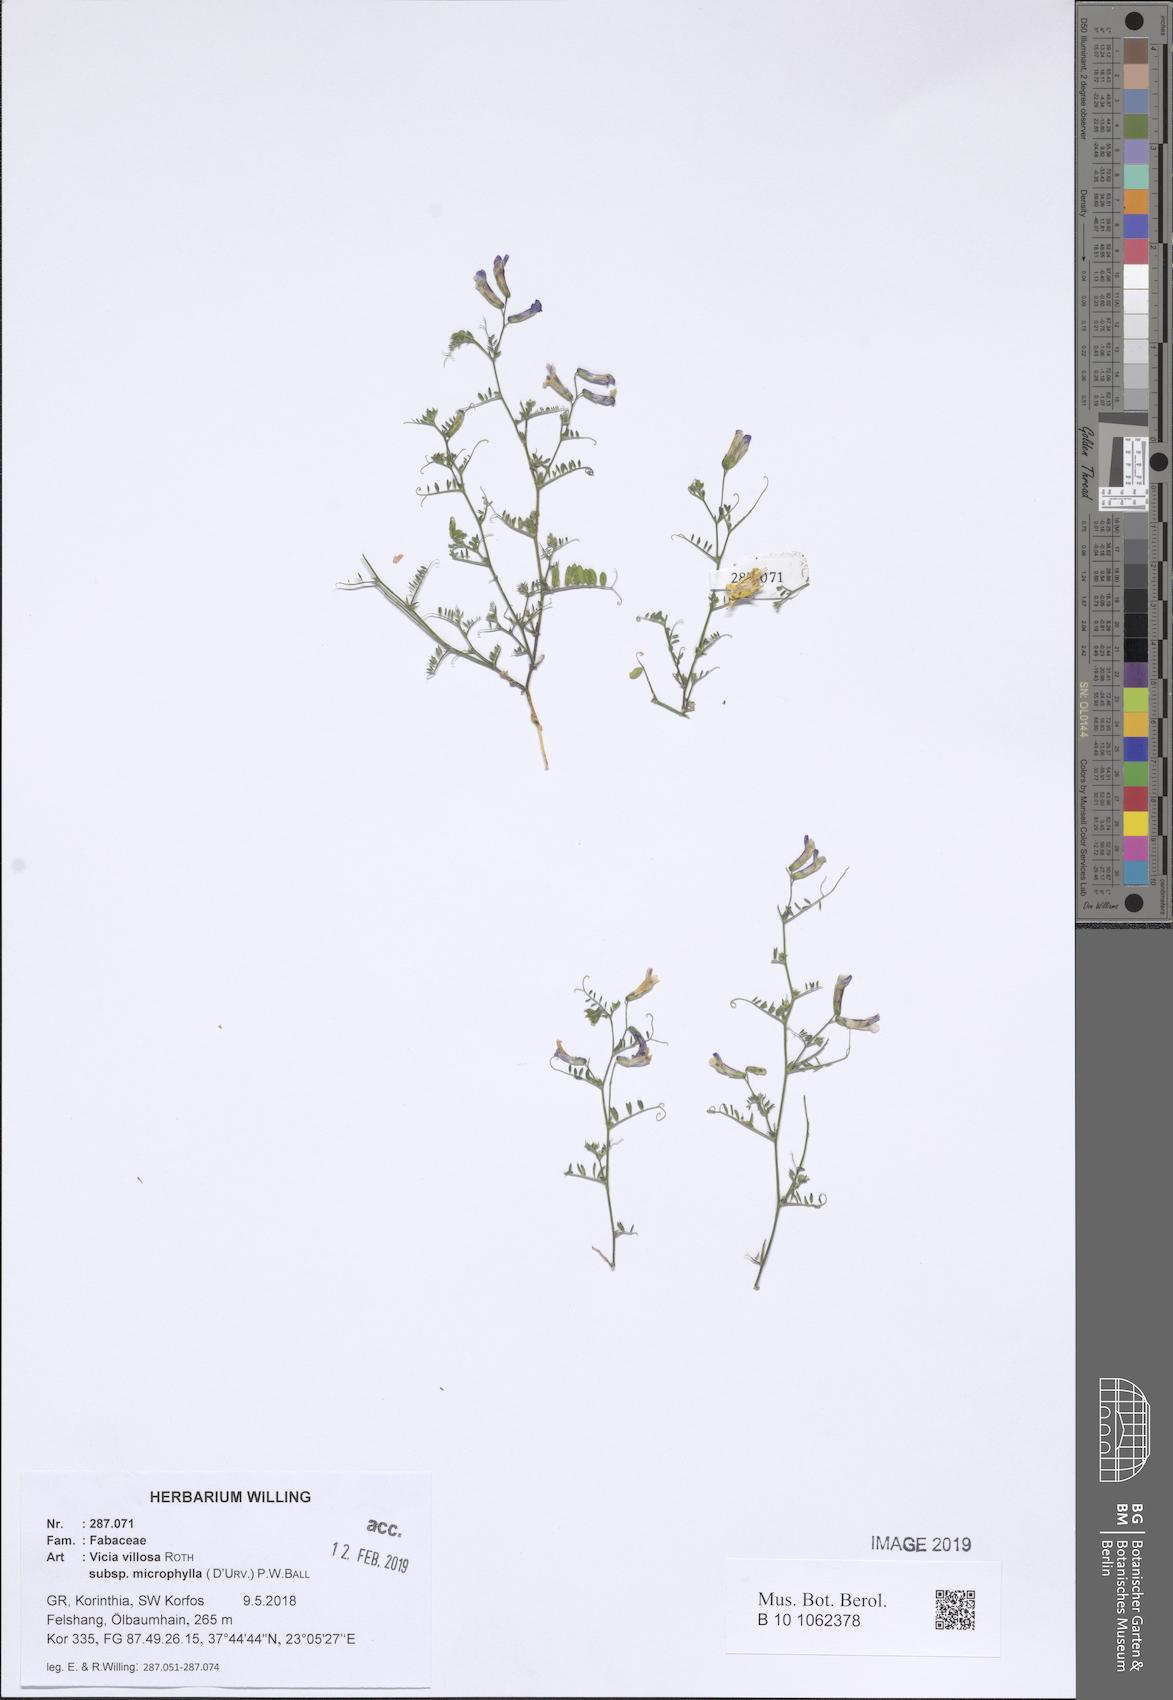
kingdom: Plantae
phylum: Tracheophyta
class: Magnoliopsida
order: Fabales
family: Fabaceae
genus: Vicia
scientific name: Vicia villosa
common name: Fodder vetch
